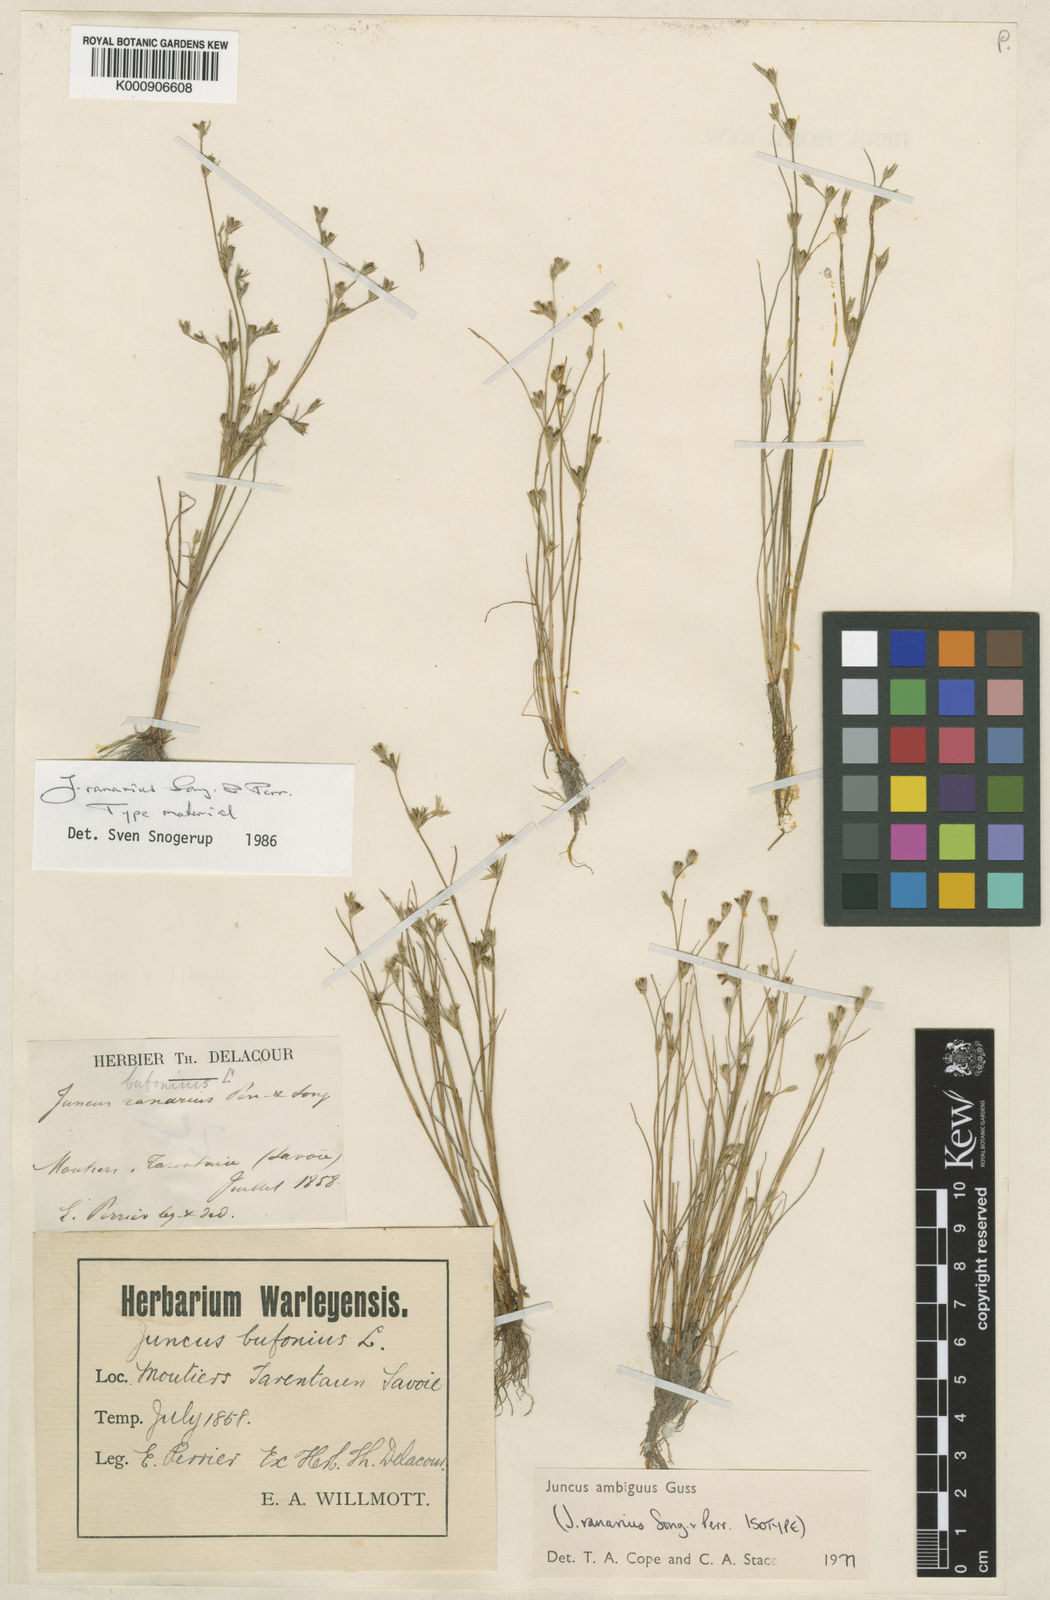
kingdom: Plantae
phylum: Tracheophyta
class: Liliopsida
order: Poales
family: Juncaceae
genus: Juncus
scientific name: Juncus hybridus
